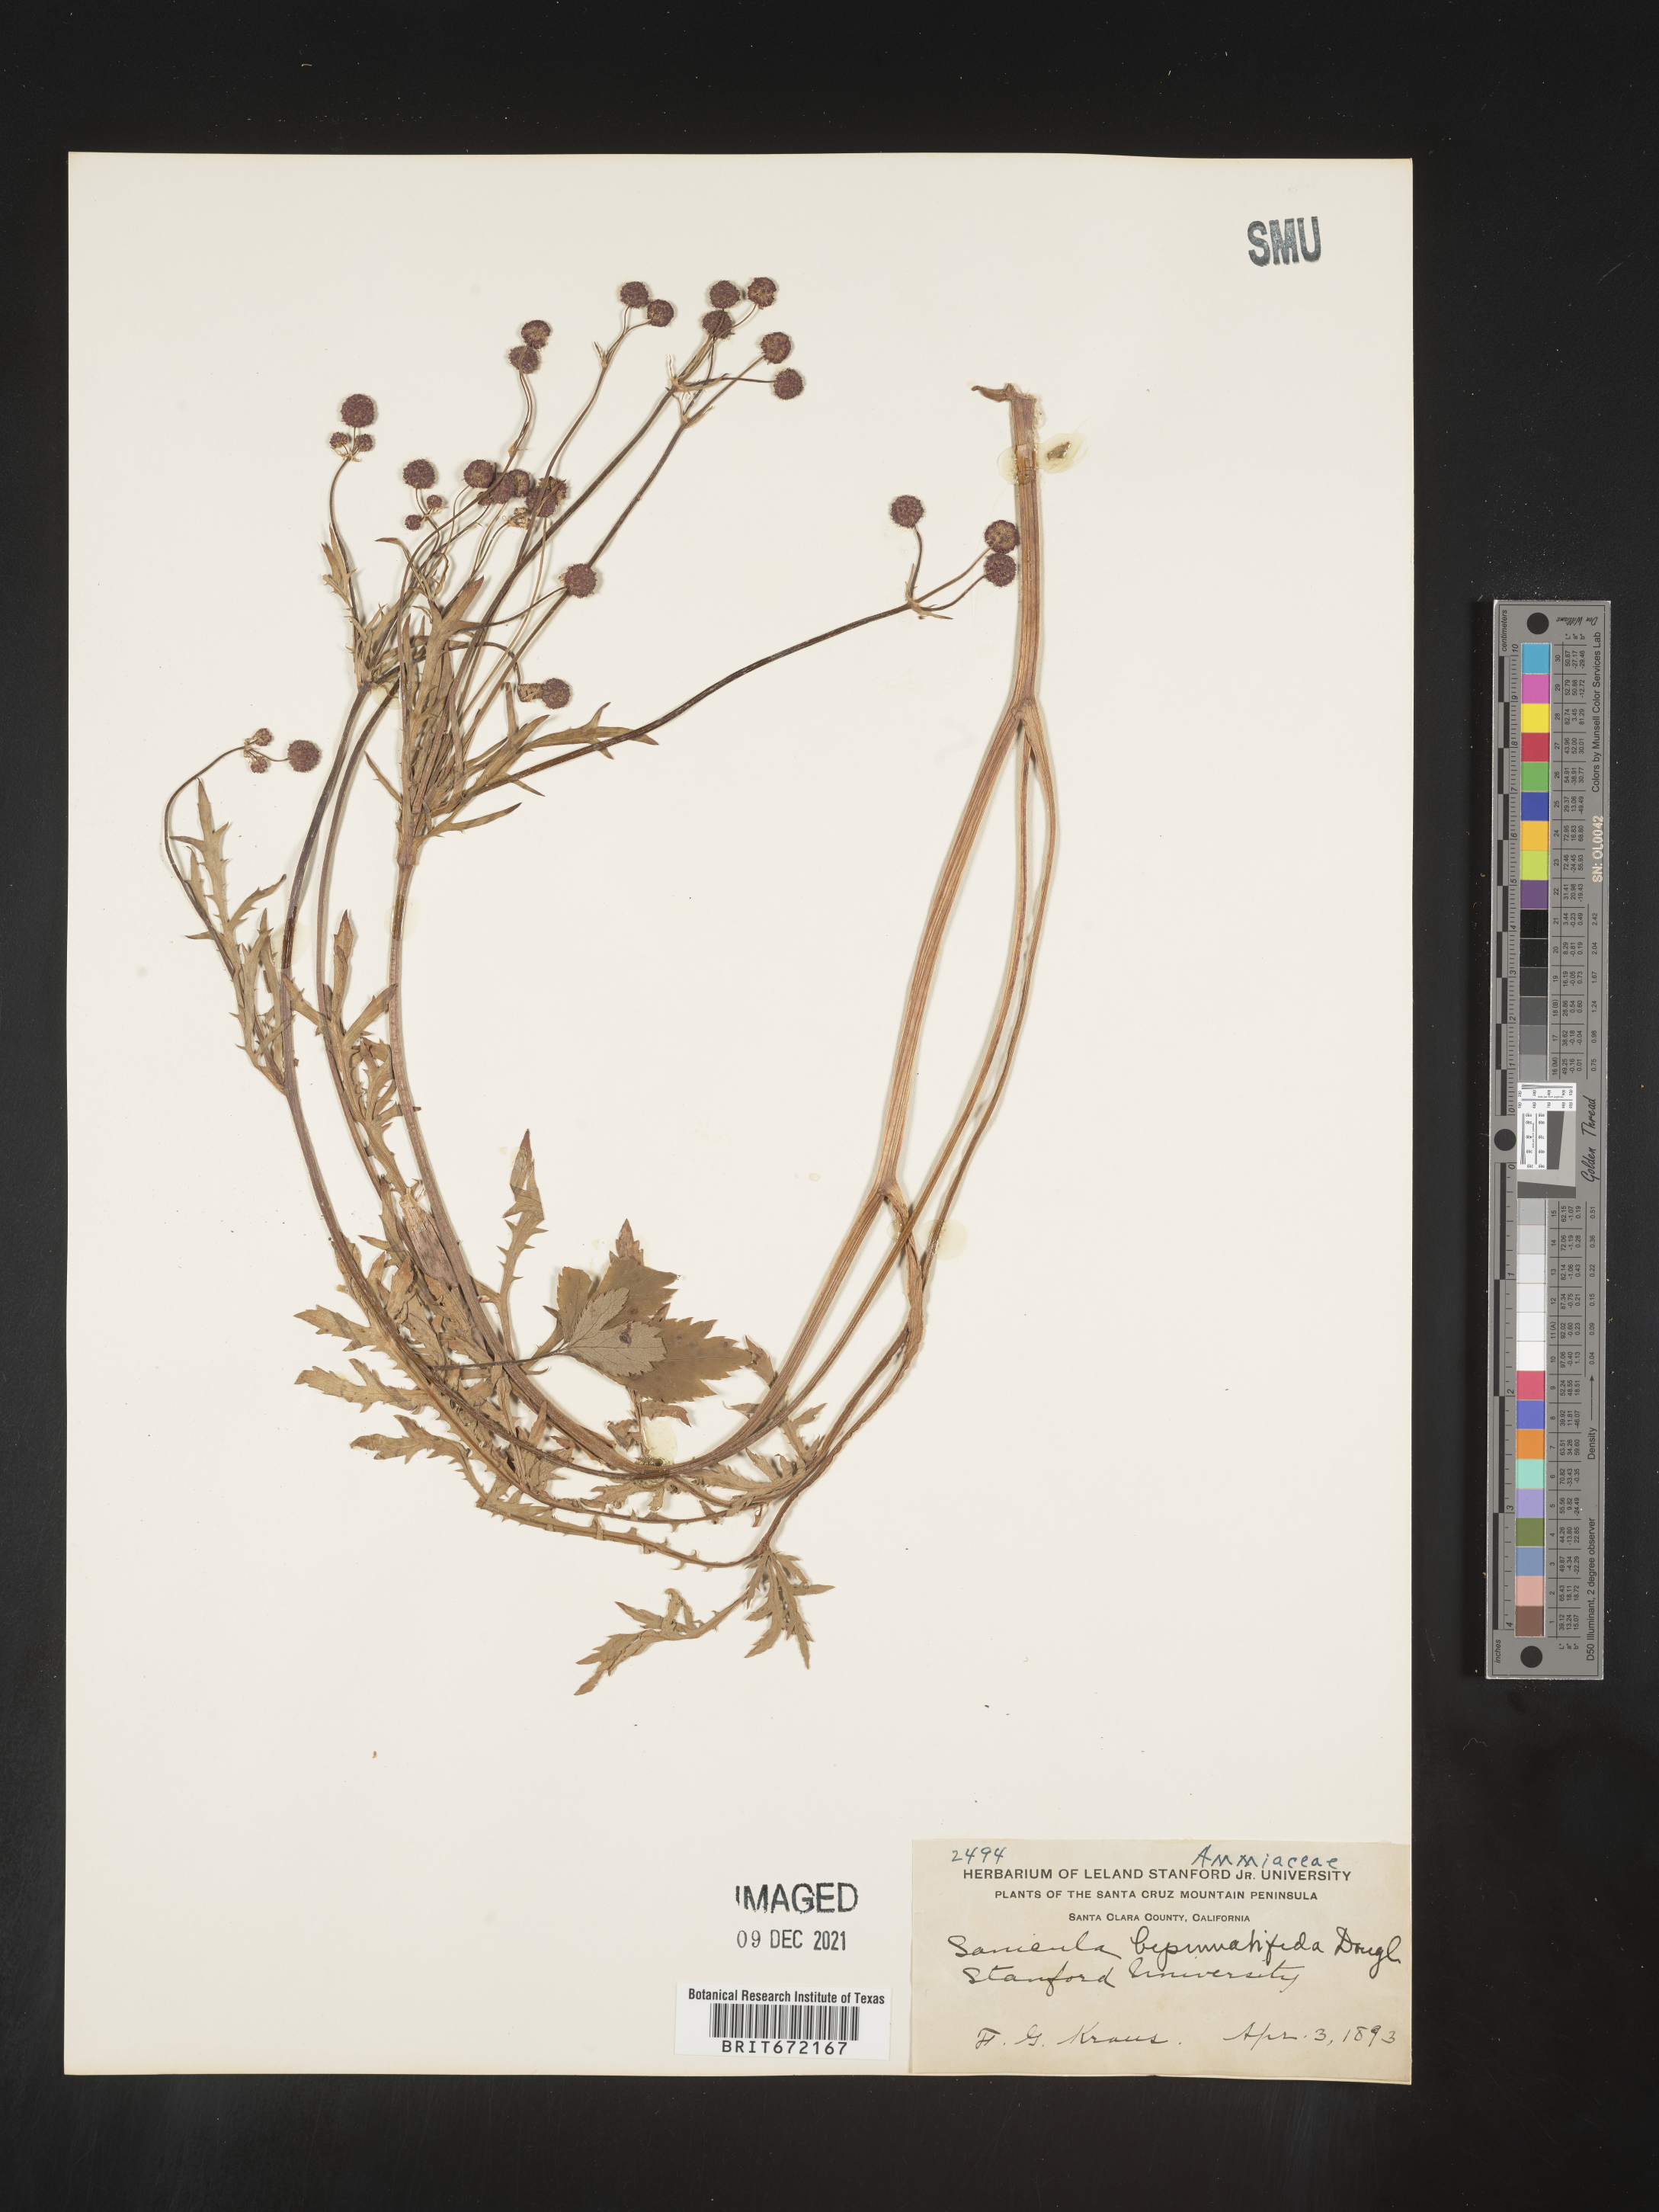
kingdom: Plantae
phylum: Tracheophyta
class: Magnoliopsida
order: Apiales
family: Apiaceae
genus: Sanicula
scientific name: Sanicula
